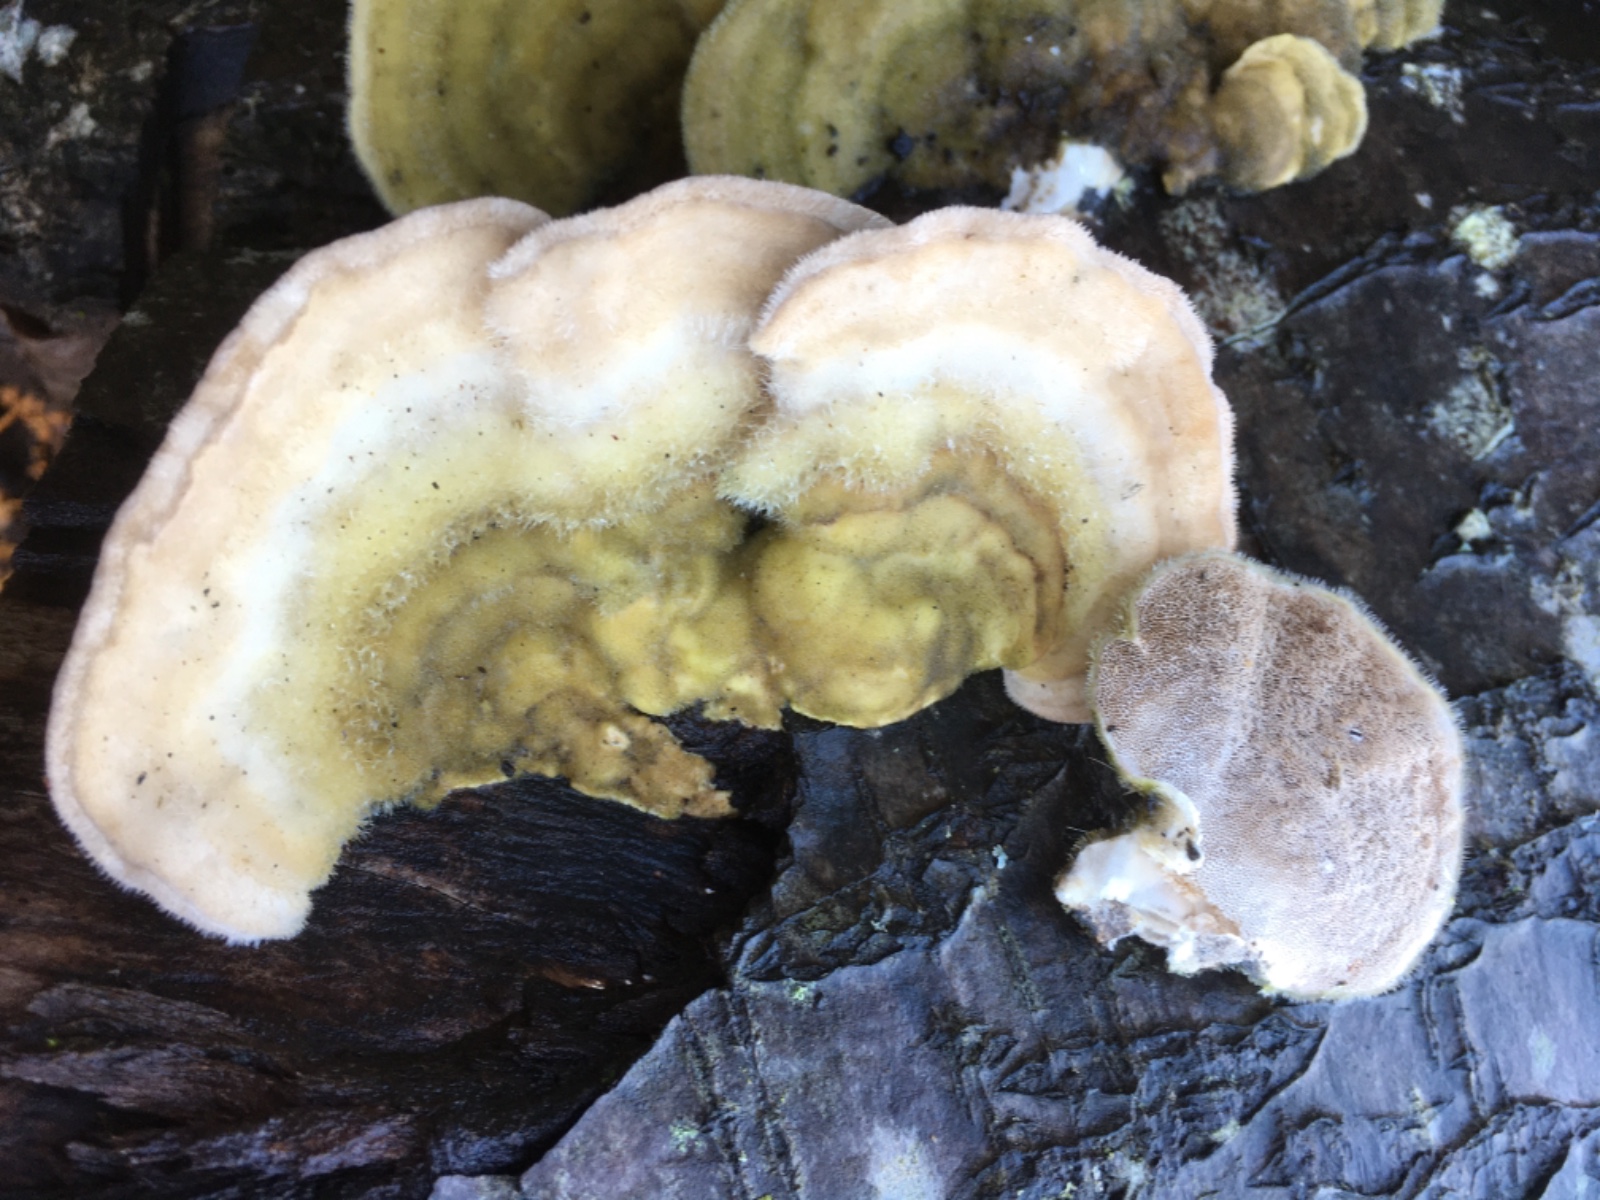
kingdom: Fungi
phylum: Basidiomycota
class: Agaricomycetes
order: Polyporales
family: Polyporaceae
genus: Trametes
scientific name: Trametes hirsuta
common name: håret læderporesvamp
